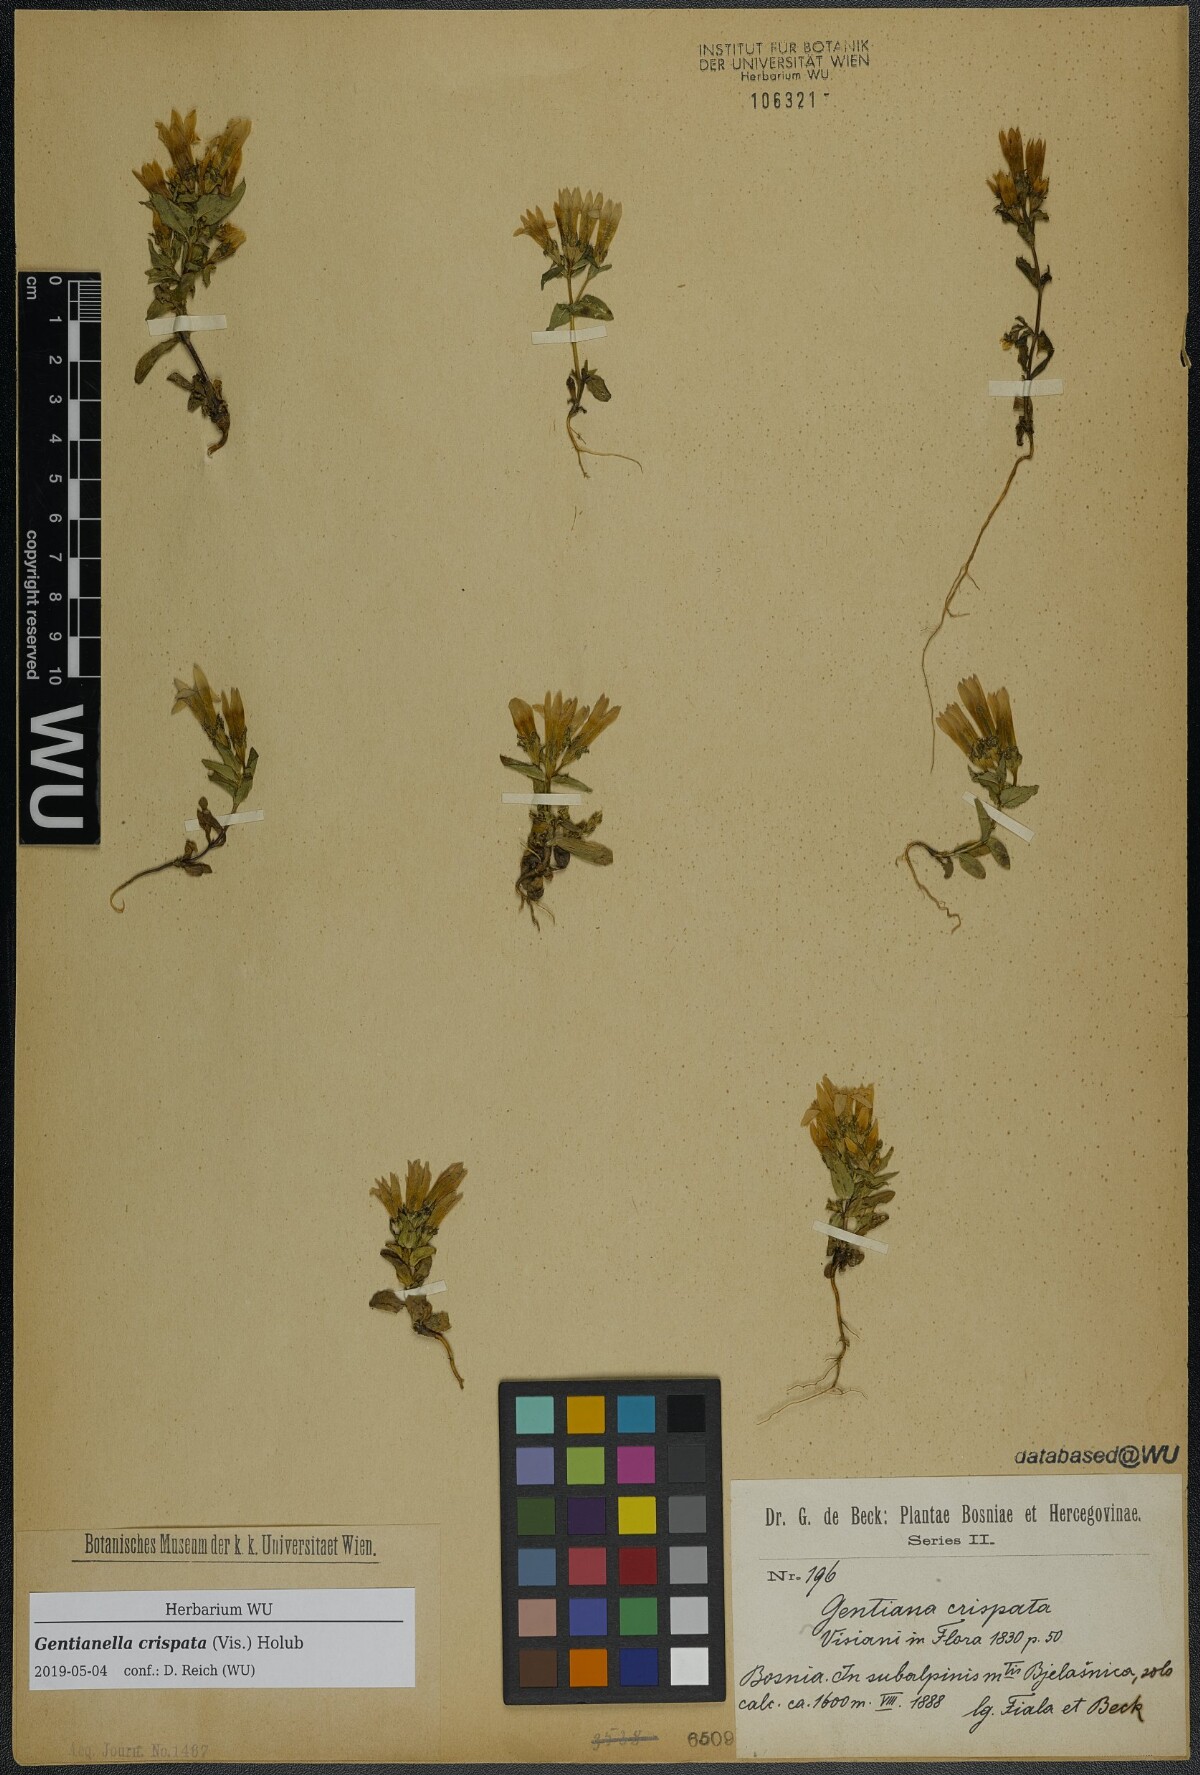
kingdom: Plantae
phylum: Tracheophyta
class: Magnoliopsida
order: Gentianales
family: Gentianaceae
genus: Gentianella
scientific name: Gentianella crispata
